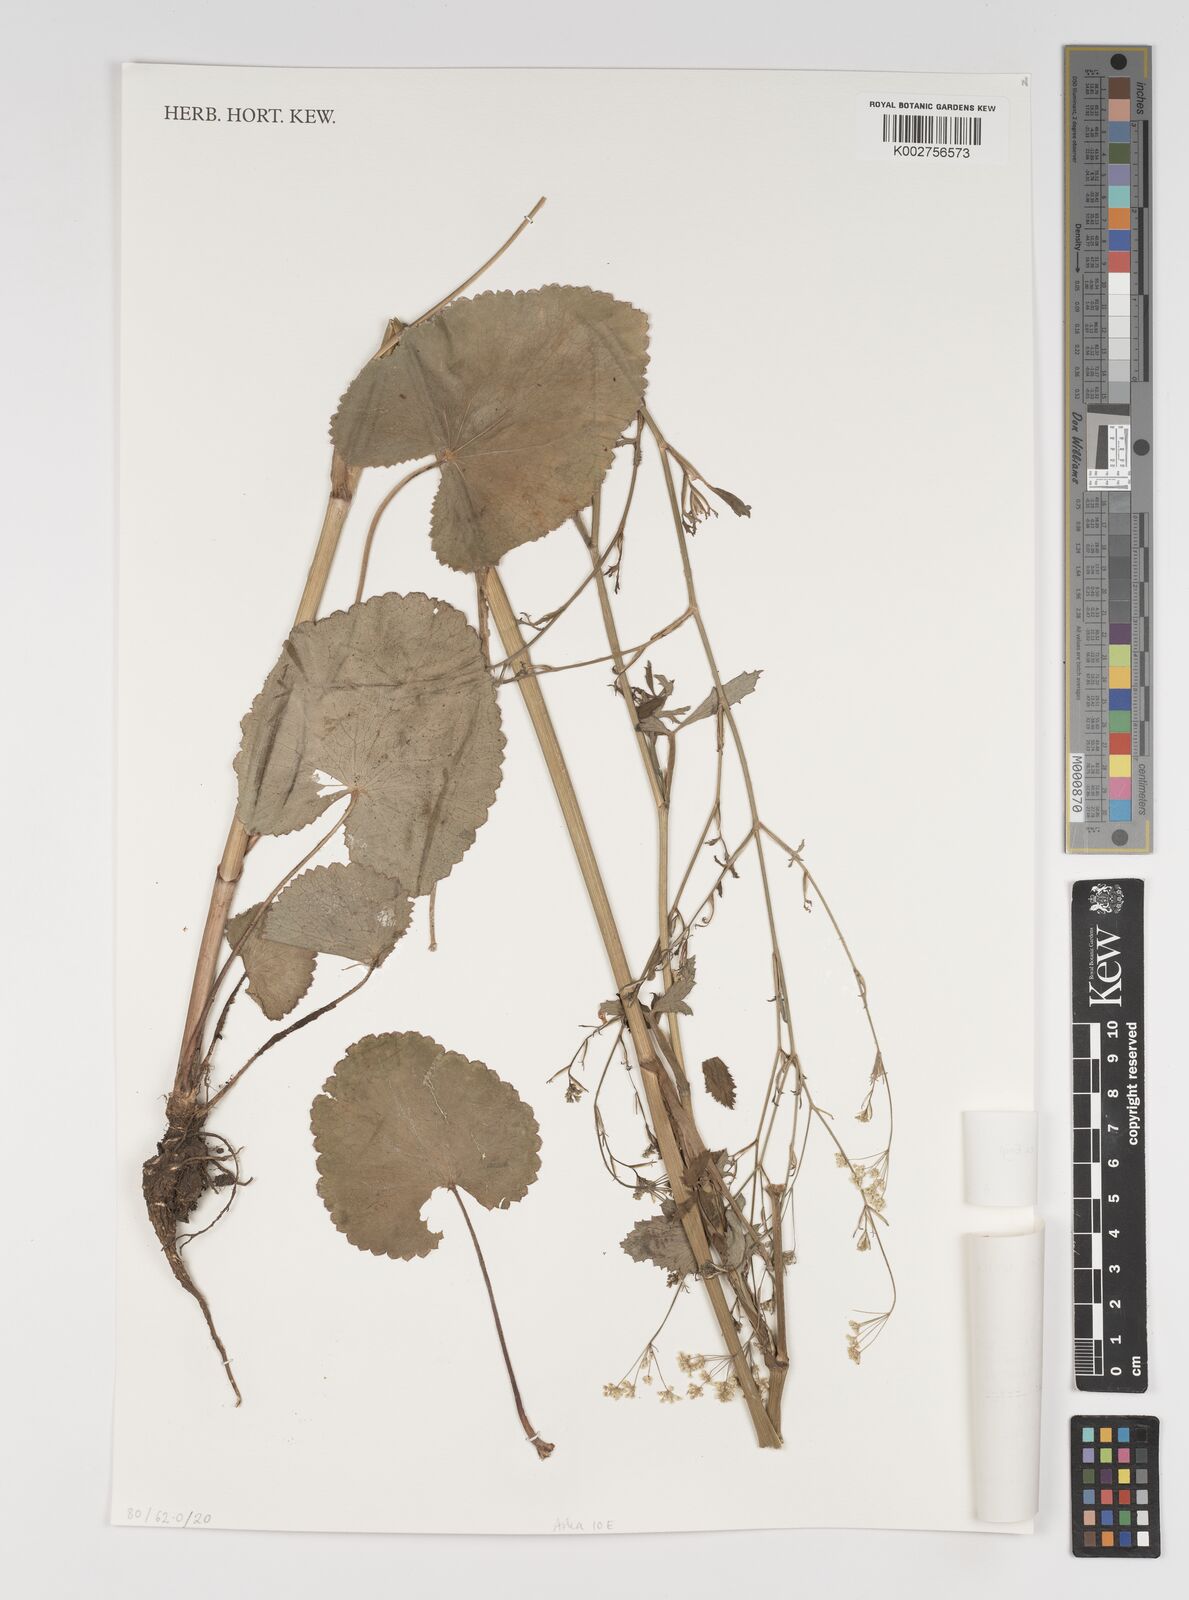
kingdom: Plantae
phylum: Tracheophyta
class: Magnoliopsida
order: Apiales
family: Apiaceae
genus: Pimpinella
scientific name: Pimpinella huillensis
